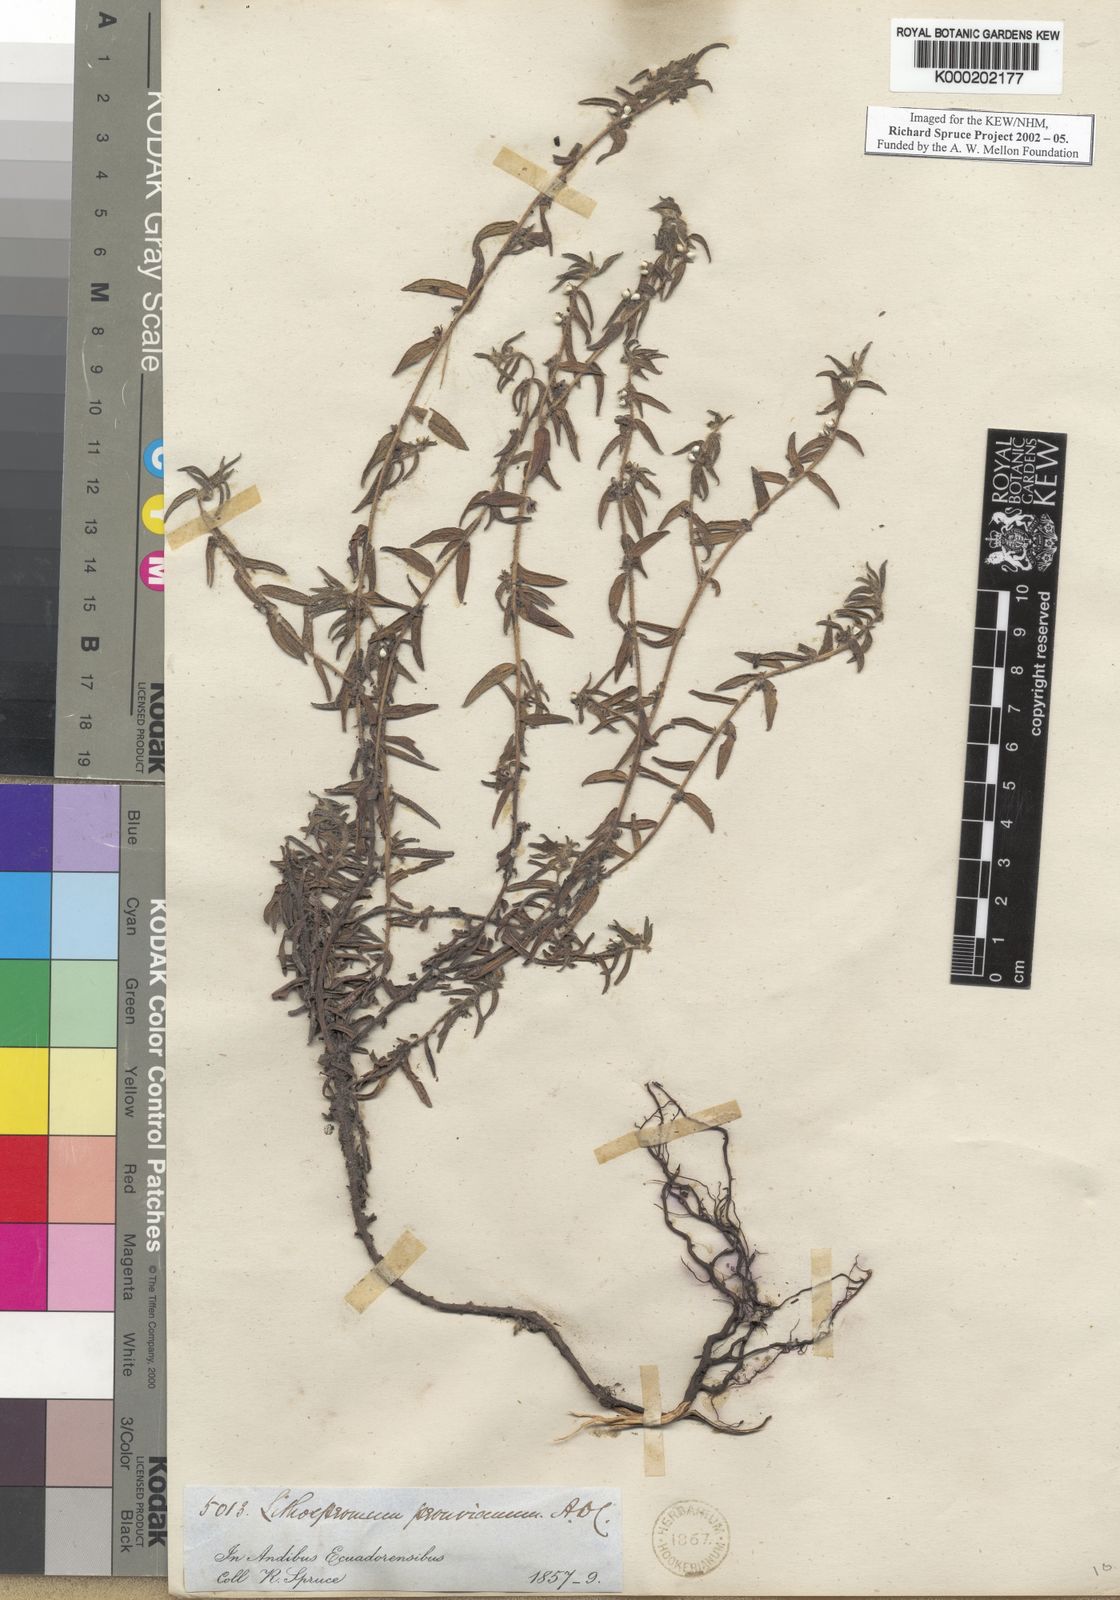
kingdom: Plantae
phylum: Tracheophyta
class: Magnoliopsida
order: Boraginales
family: Boraginaceae
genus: Lithospermum
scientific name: Lithospermum peruvianum
